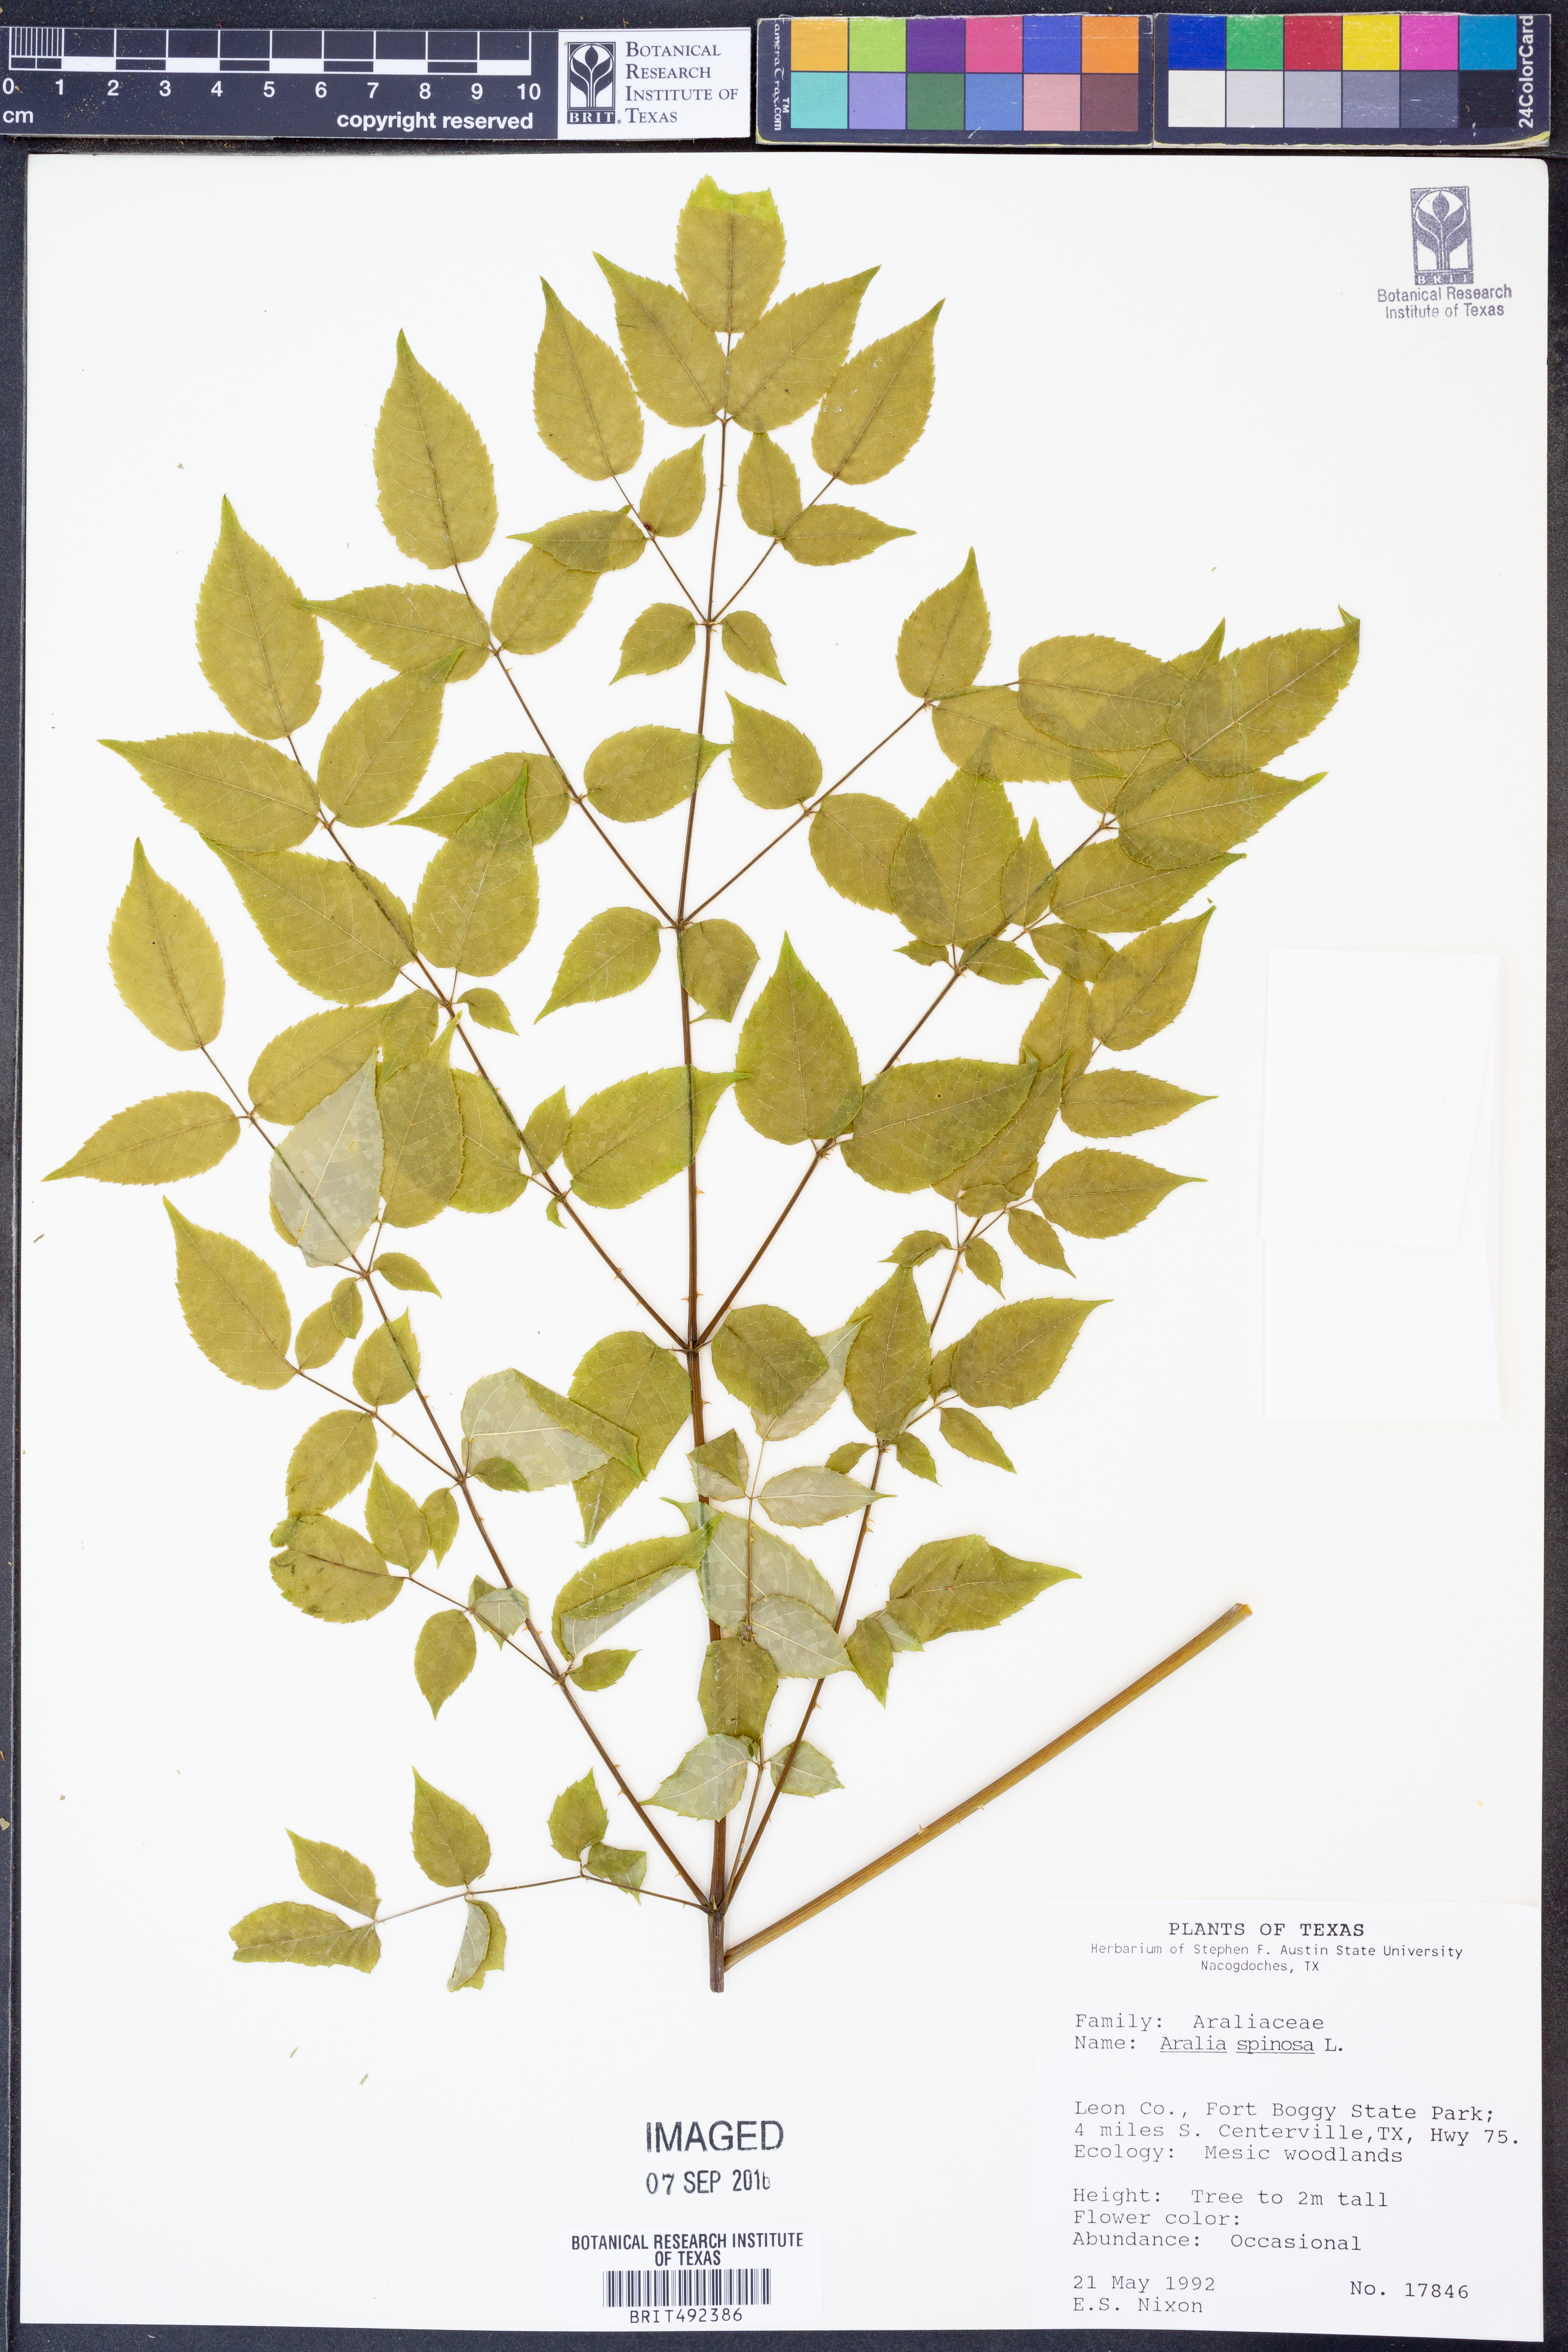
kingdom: Plantae
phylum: Tracheophyta
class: Magnoliopsida
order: Apiales
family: Araliaceae
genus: Aralia
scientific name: Aralia spinosa
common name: Hercules'-club
